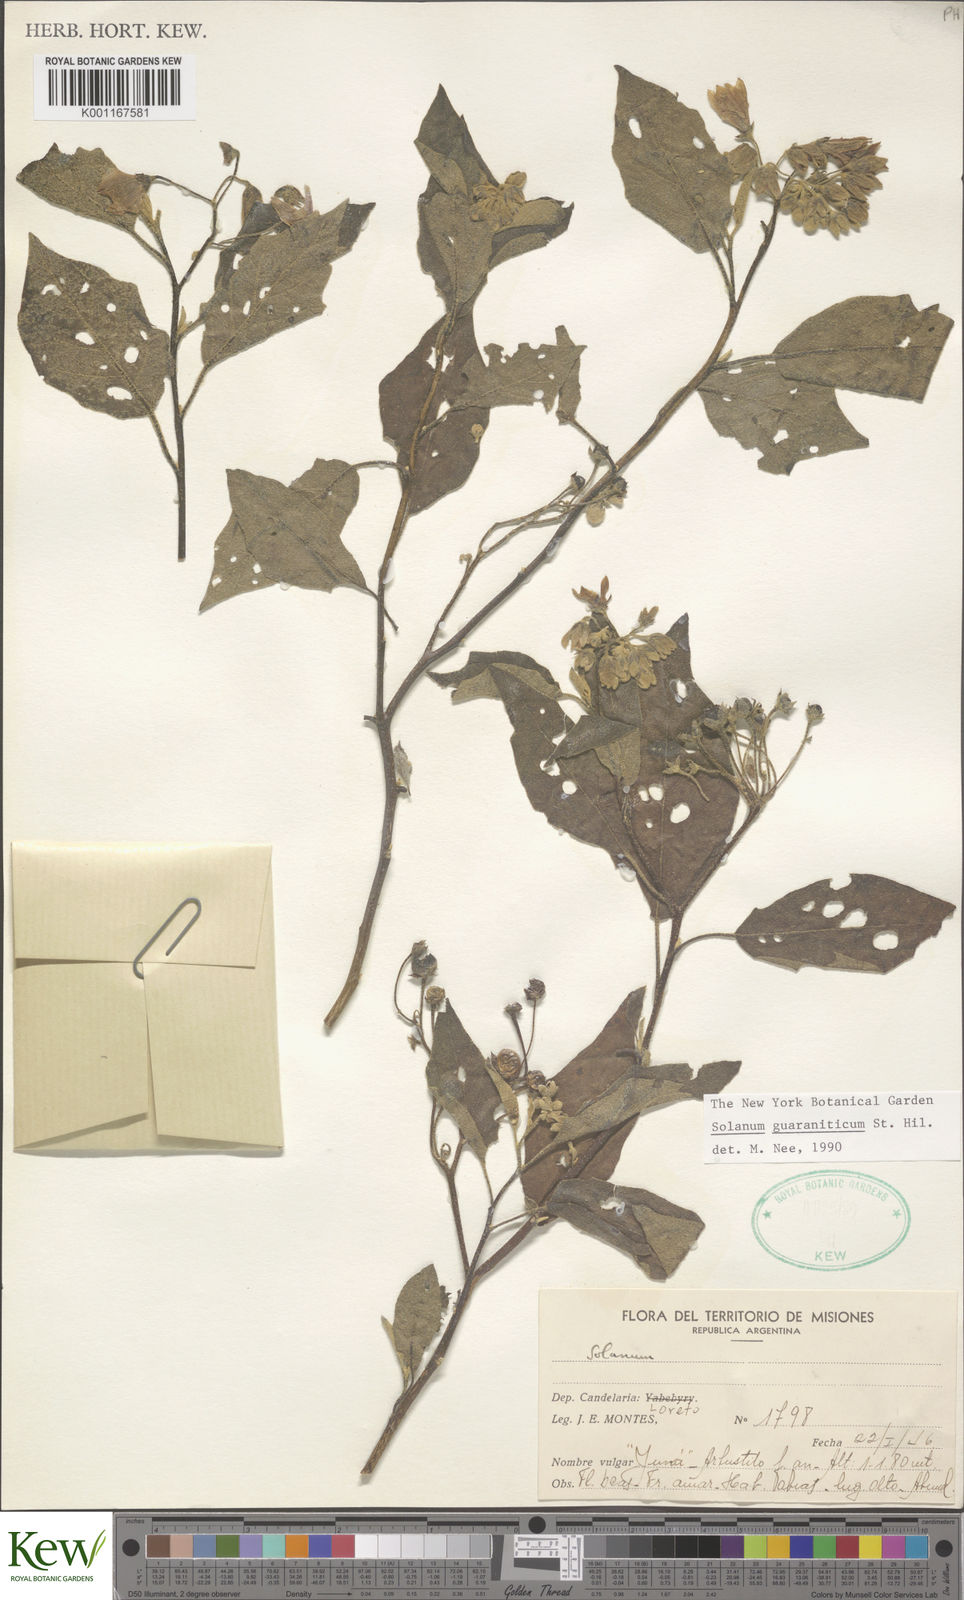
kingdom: Plantae
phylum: Tracheophyta
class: Magnoliopsida
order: Solanales
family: Solanaceae
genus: Solanum
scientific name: Solanum guaraniticum
